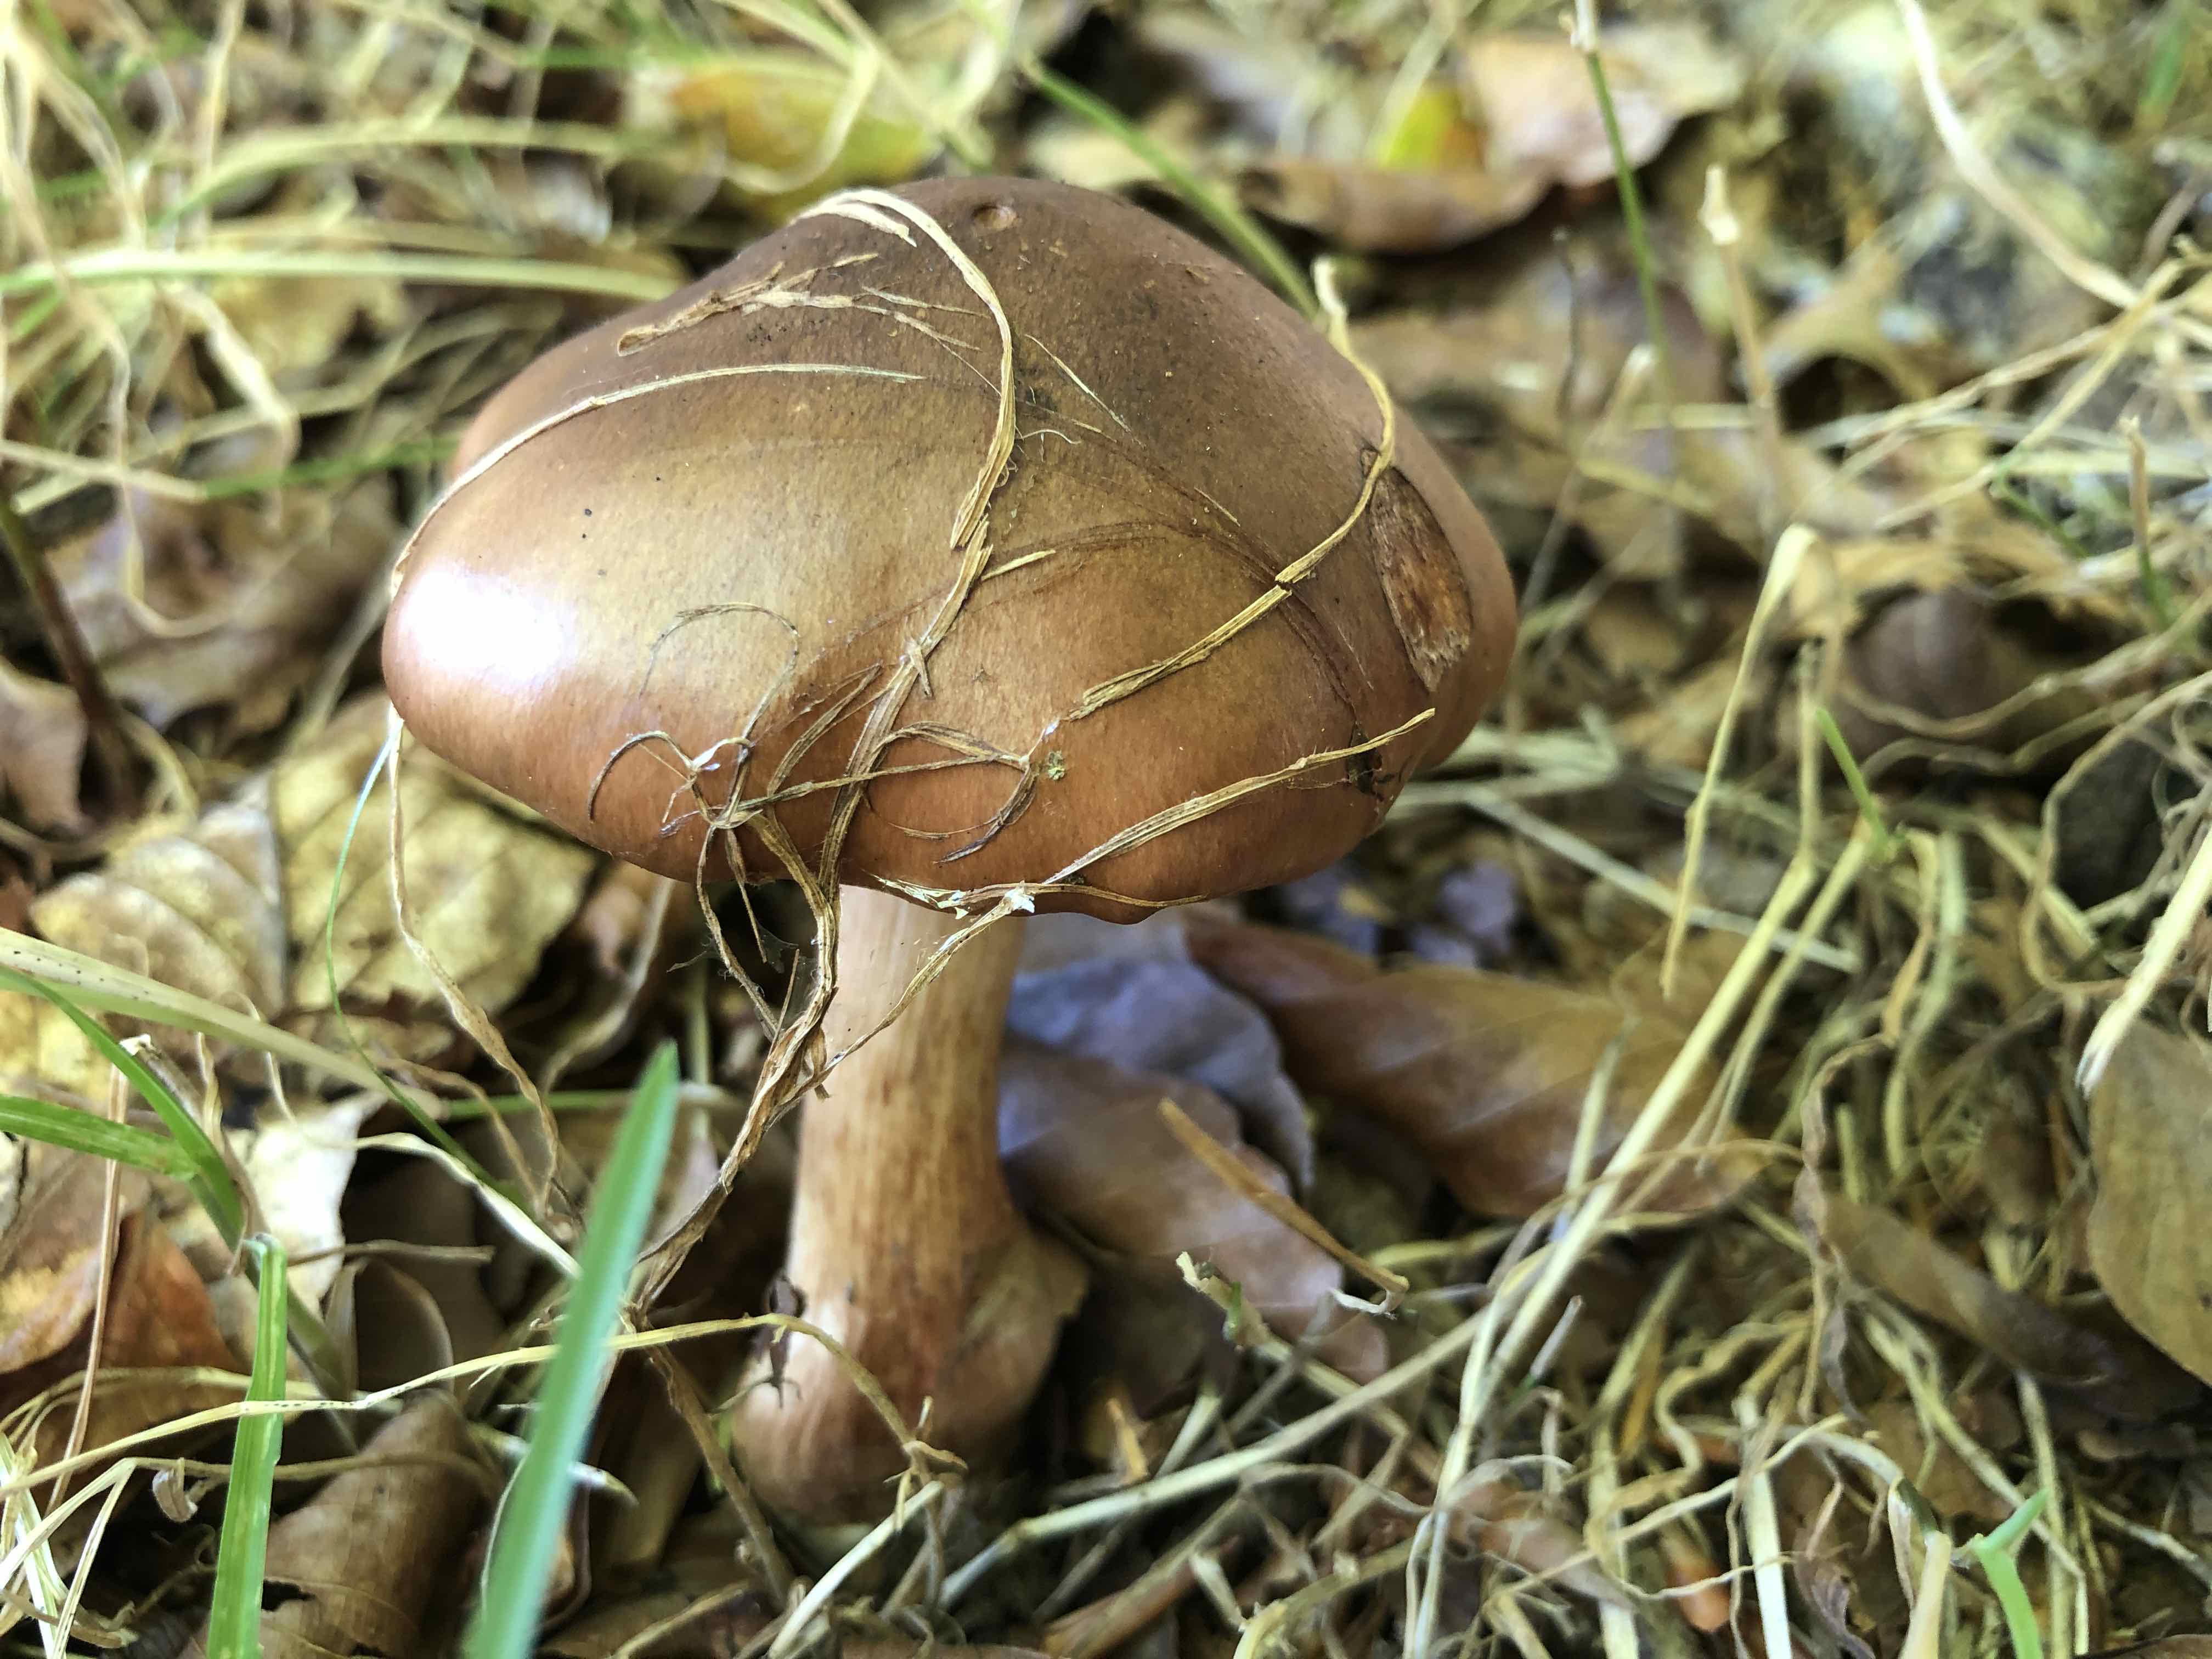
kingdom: Fungi
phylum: Basidiomycota
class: Agaricomycetes
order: Agaricales
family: Tricholomataceae
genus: Tricholoma
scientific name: Tricholoma ustale
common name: sveden ridderhat
